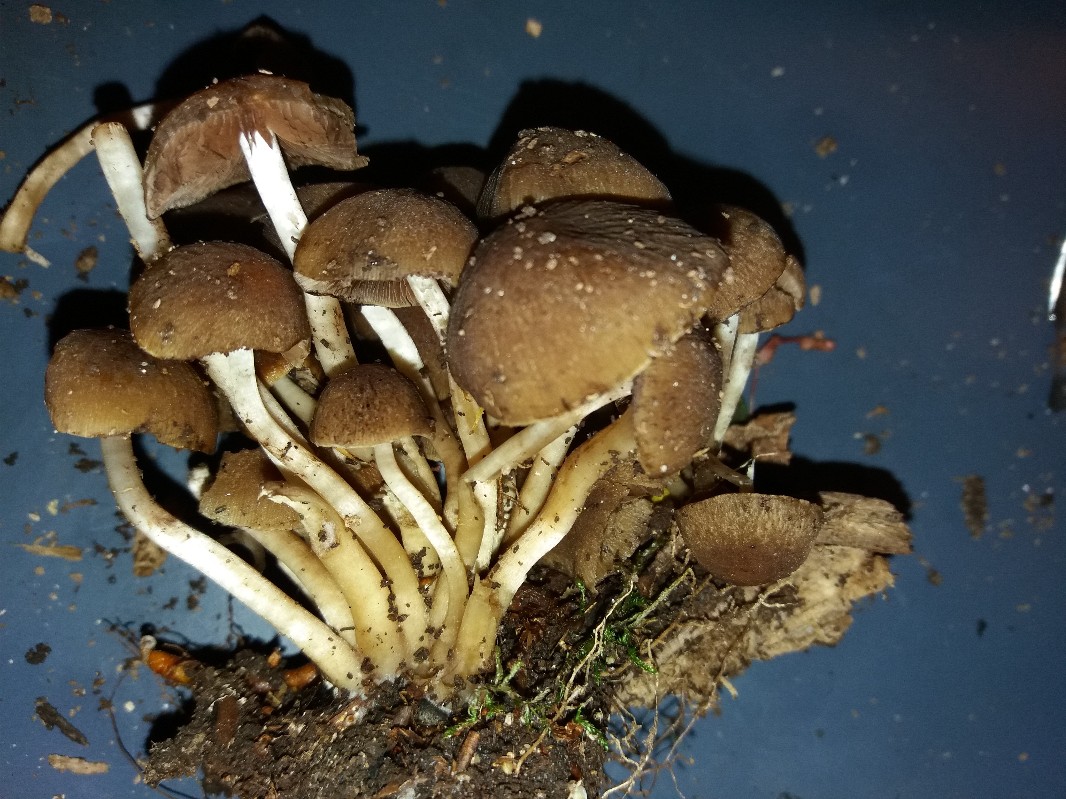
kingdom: Fungi
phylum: Basidiomycota
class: Agaricomycetes
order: Agaricales
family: Psathyrellaceae
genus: Psathyrella
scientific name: Psathyrella piluliformis
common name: lysstokket mørkhat
